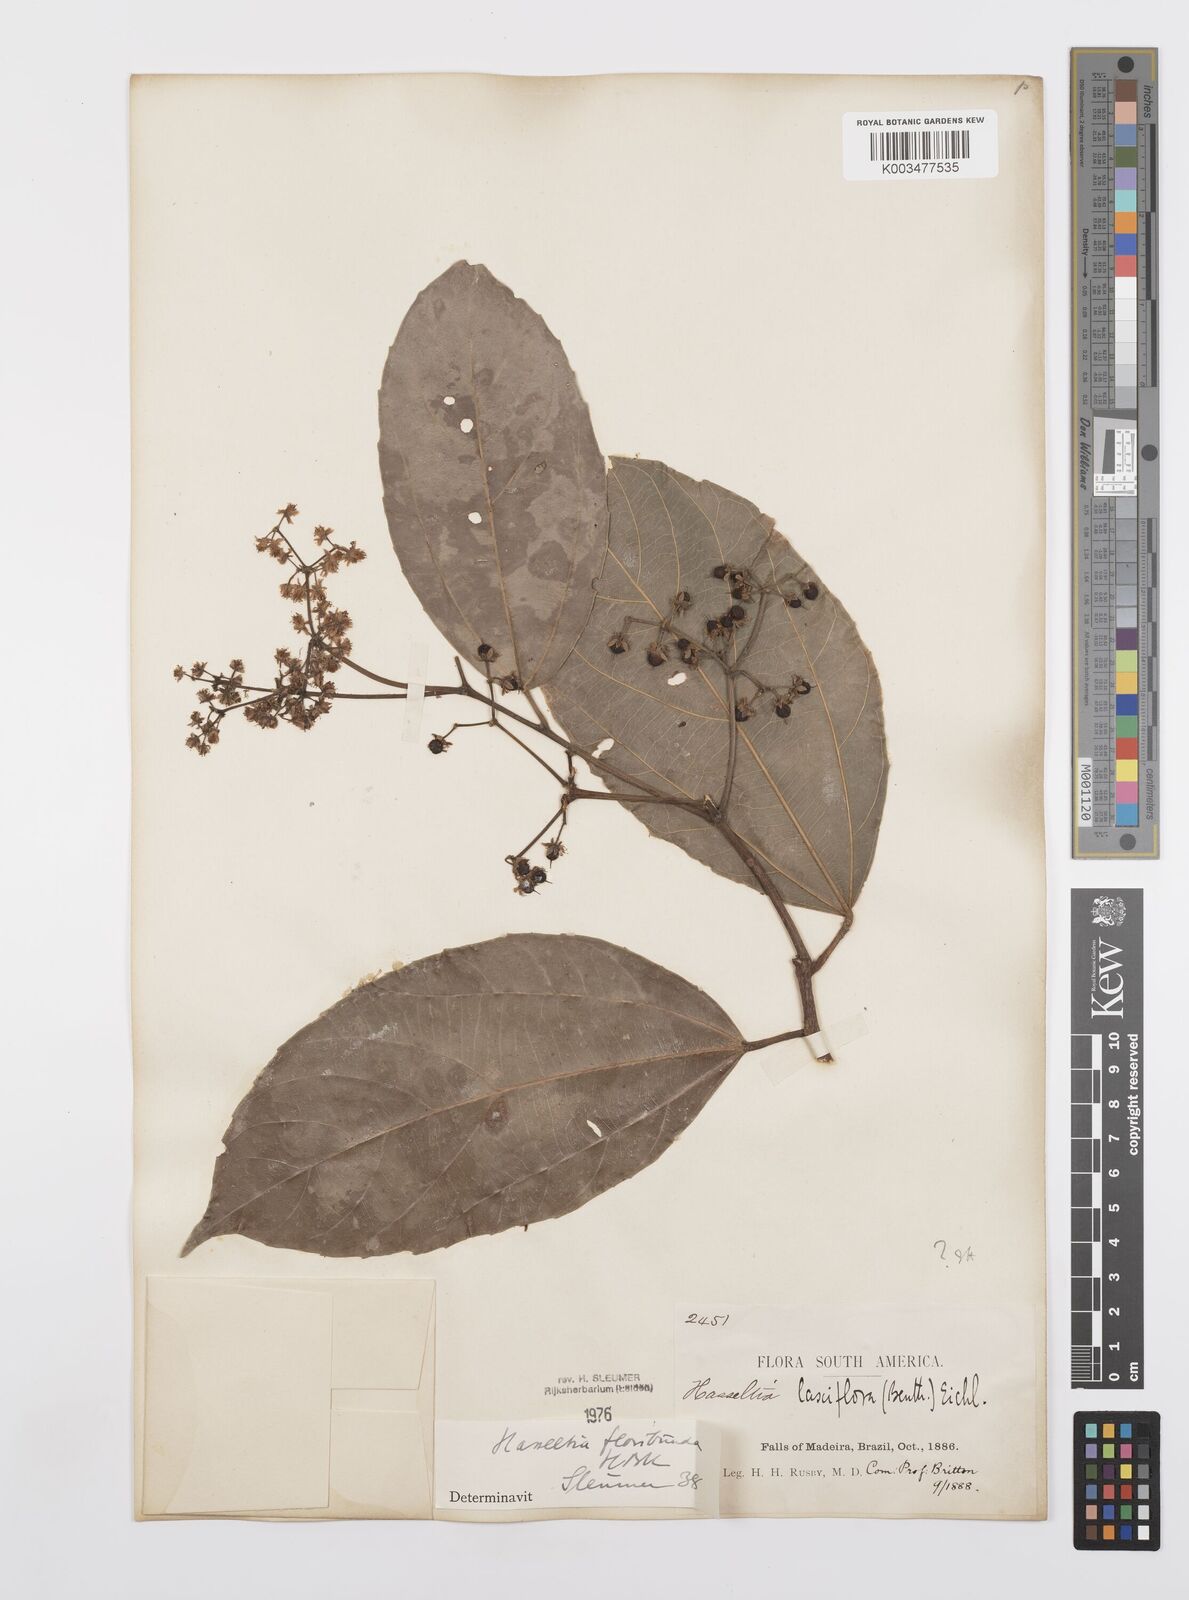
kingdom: Plantae
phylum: Tracheophyta
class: Magnoliopsida
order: Malpighiales
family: Salicaceae
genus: Hasseltia
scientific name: Hasseltia floribunda
